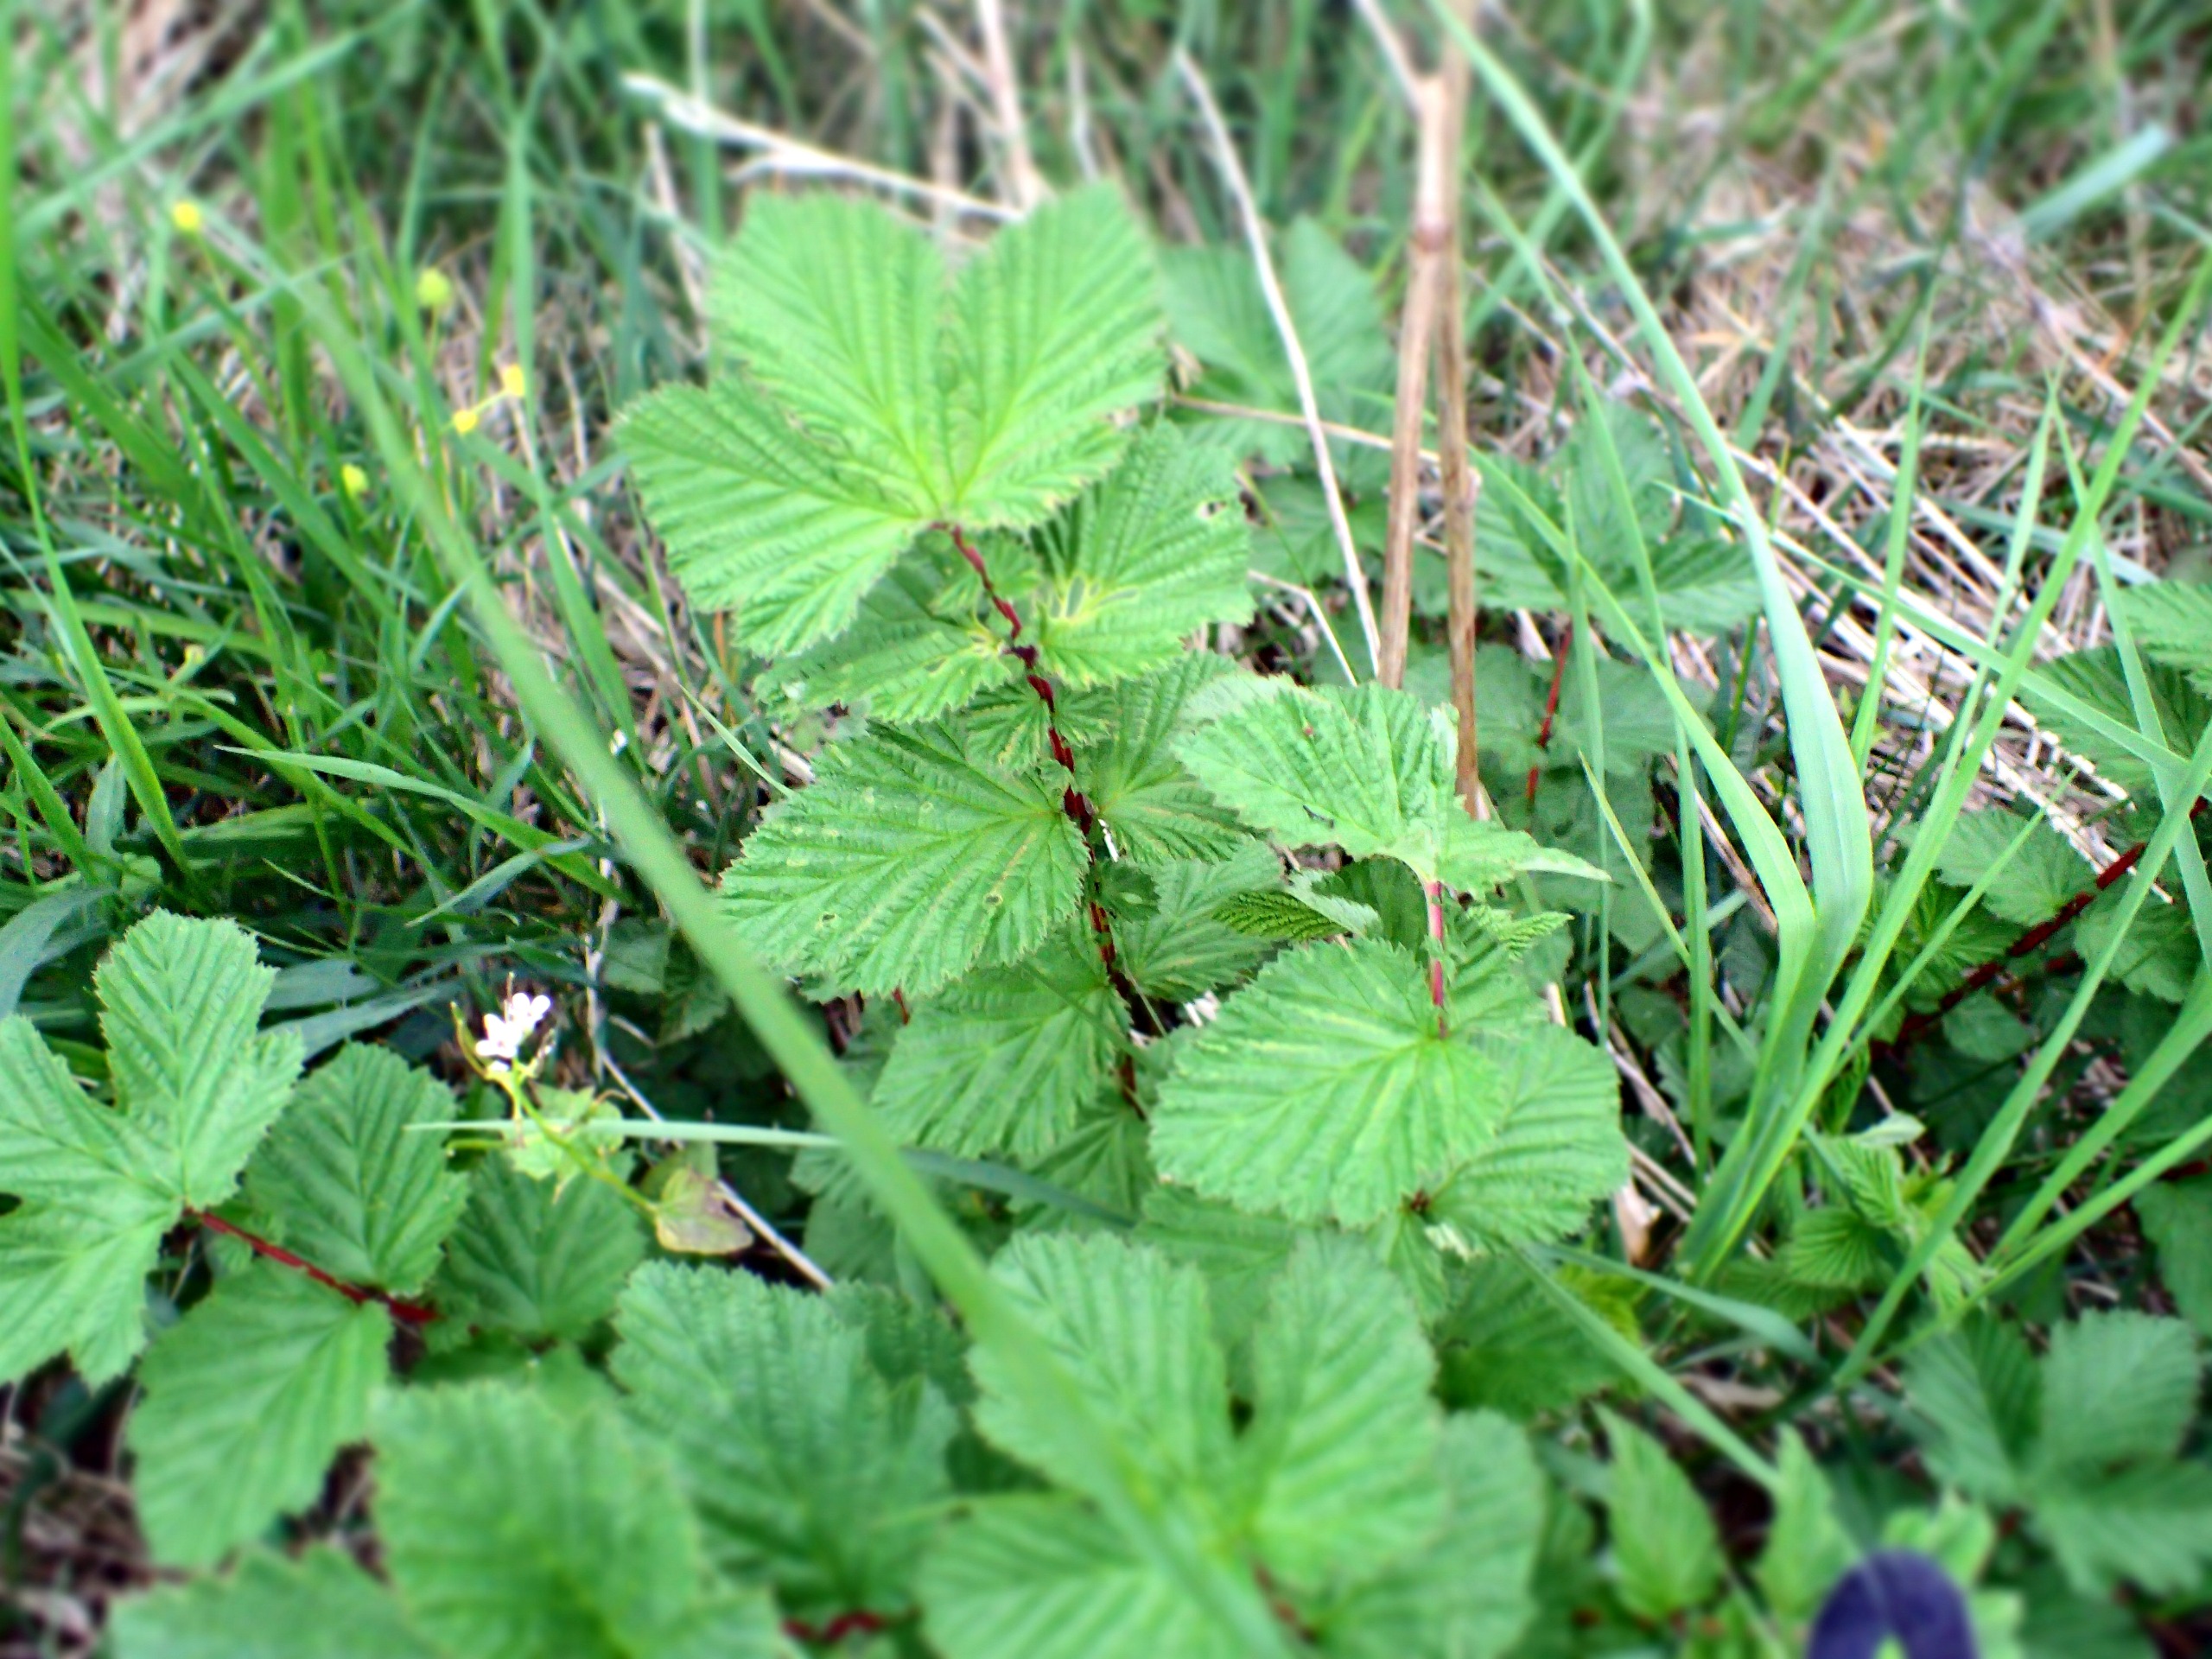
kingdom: Plantae
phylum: Tracheophyta
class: Magnoliopsida
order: Rosales
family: Rosaceae
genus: Filipendula
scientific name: Filipendula ulmaria
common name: Almindelig mjødurt
